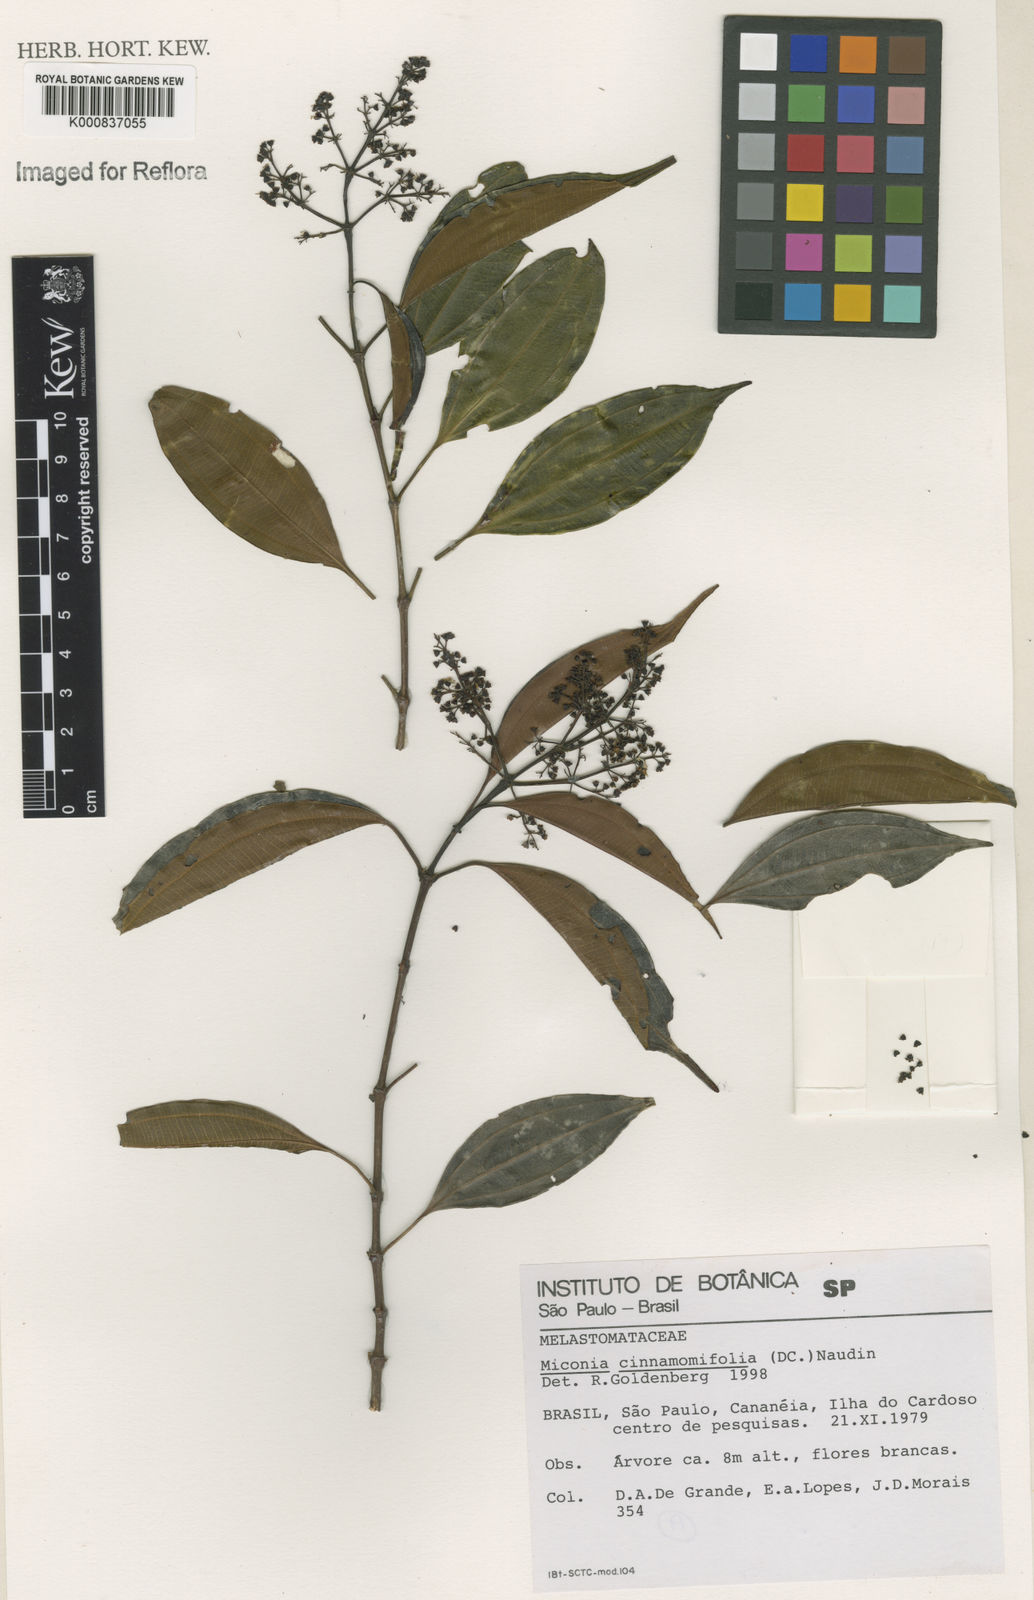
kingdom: Plantae
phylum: Tracheophyta
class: Magnoliopsida
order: Myrtales
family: Melastomataceae
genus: Miconia
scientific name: Miconia cinnamomifolia
